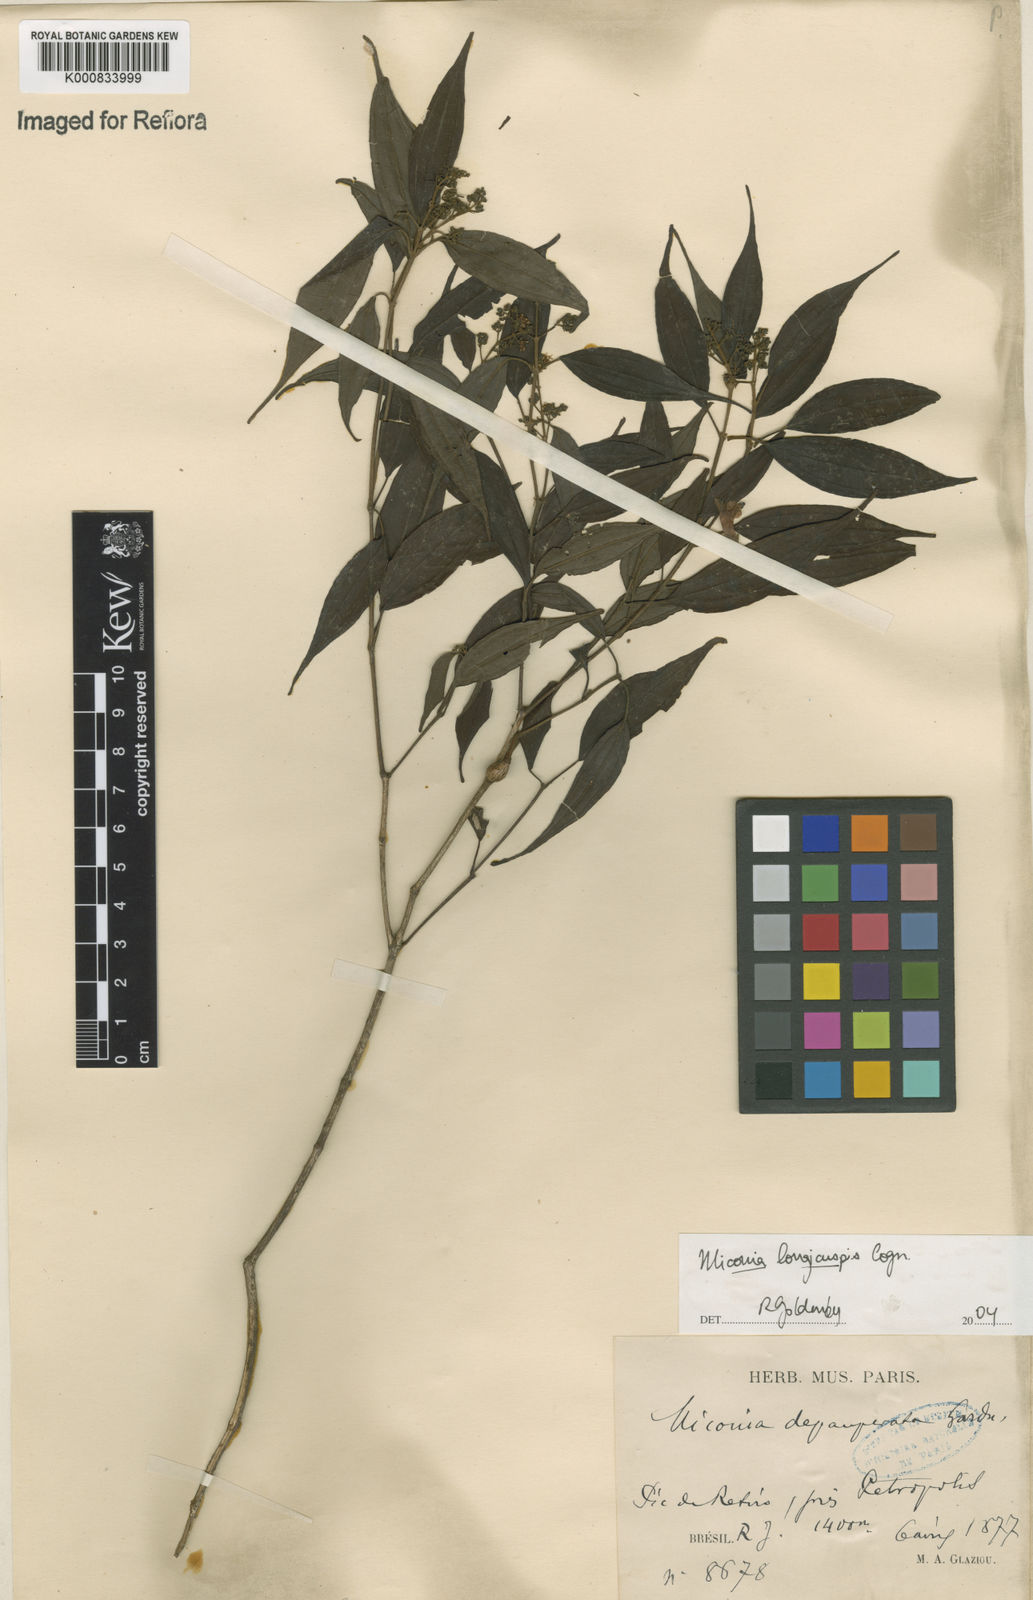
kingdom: Plantae
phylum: Tracheophyta
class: Magnoliopsida
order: Myrtales
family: Melastomataceae
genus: Miconia
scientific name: Miconia longicuspis
